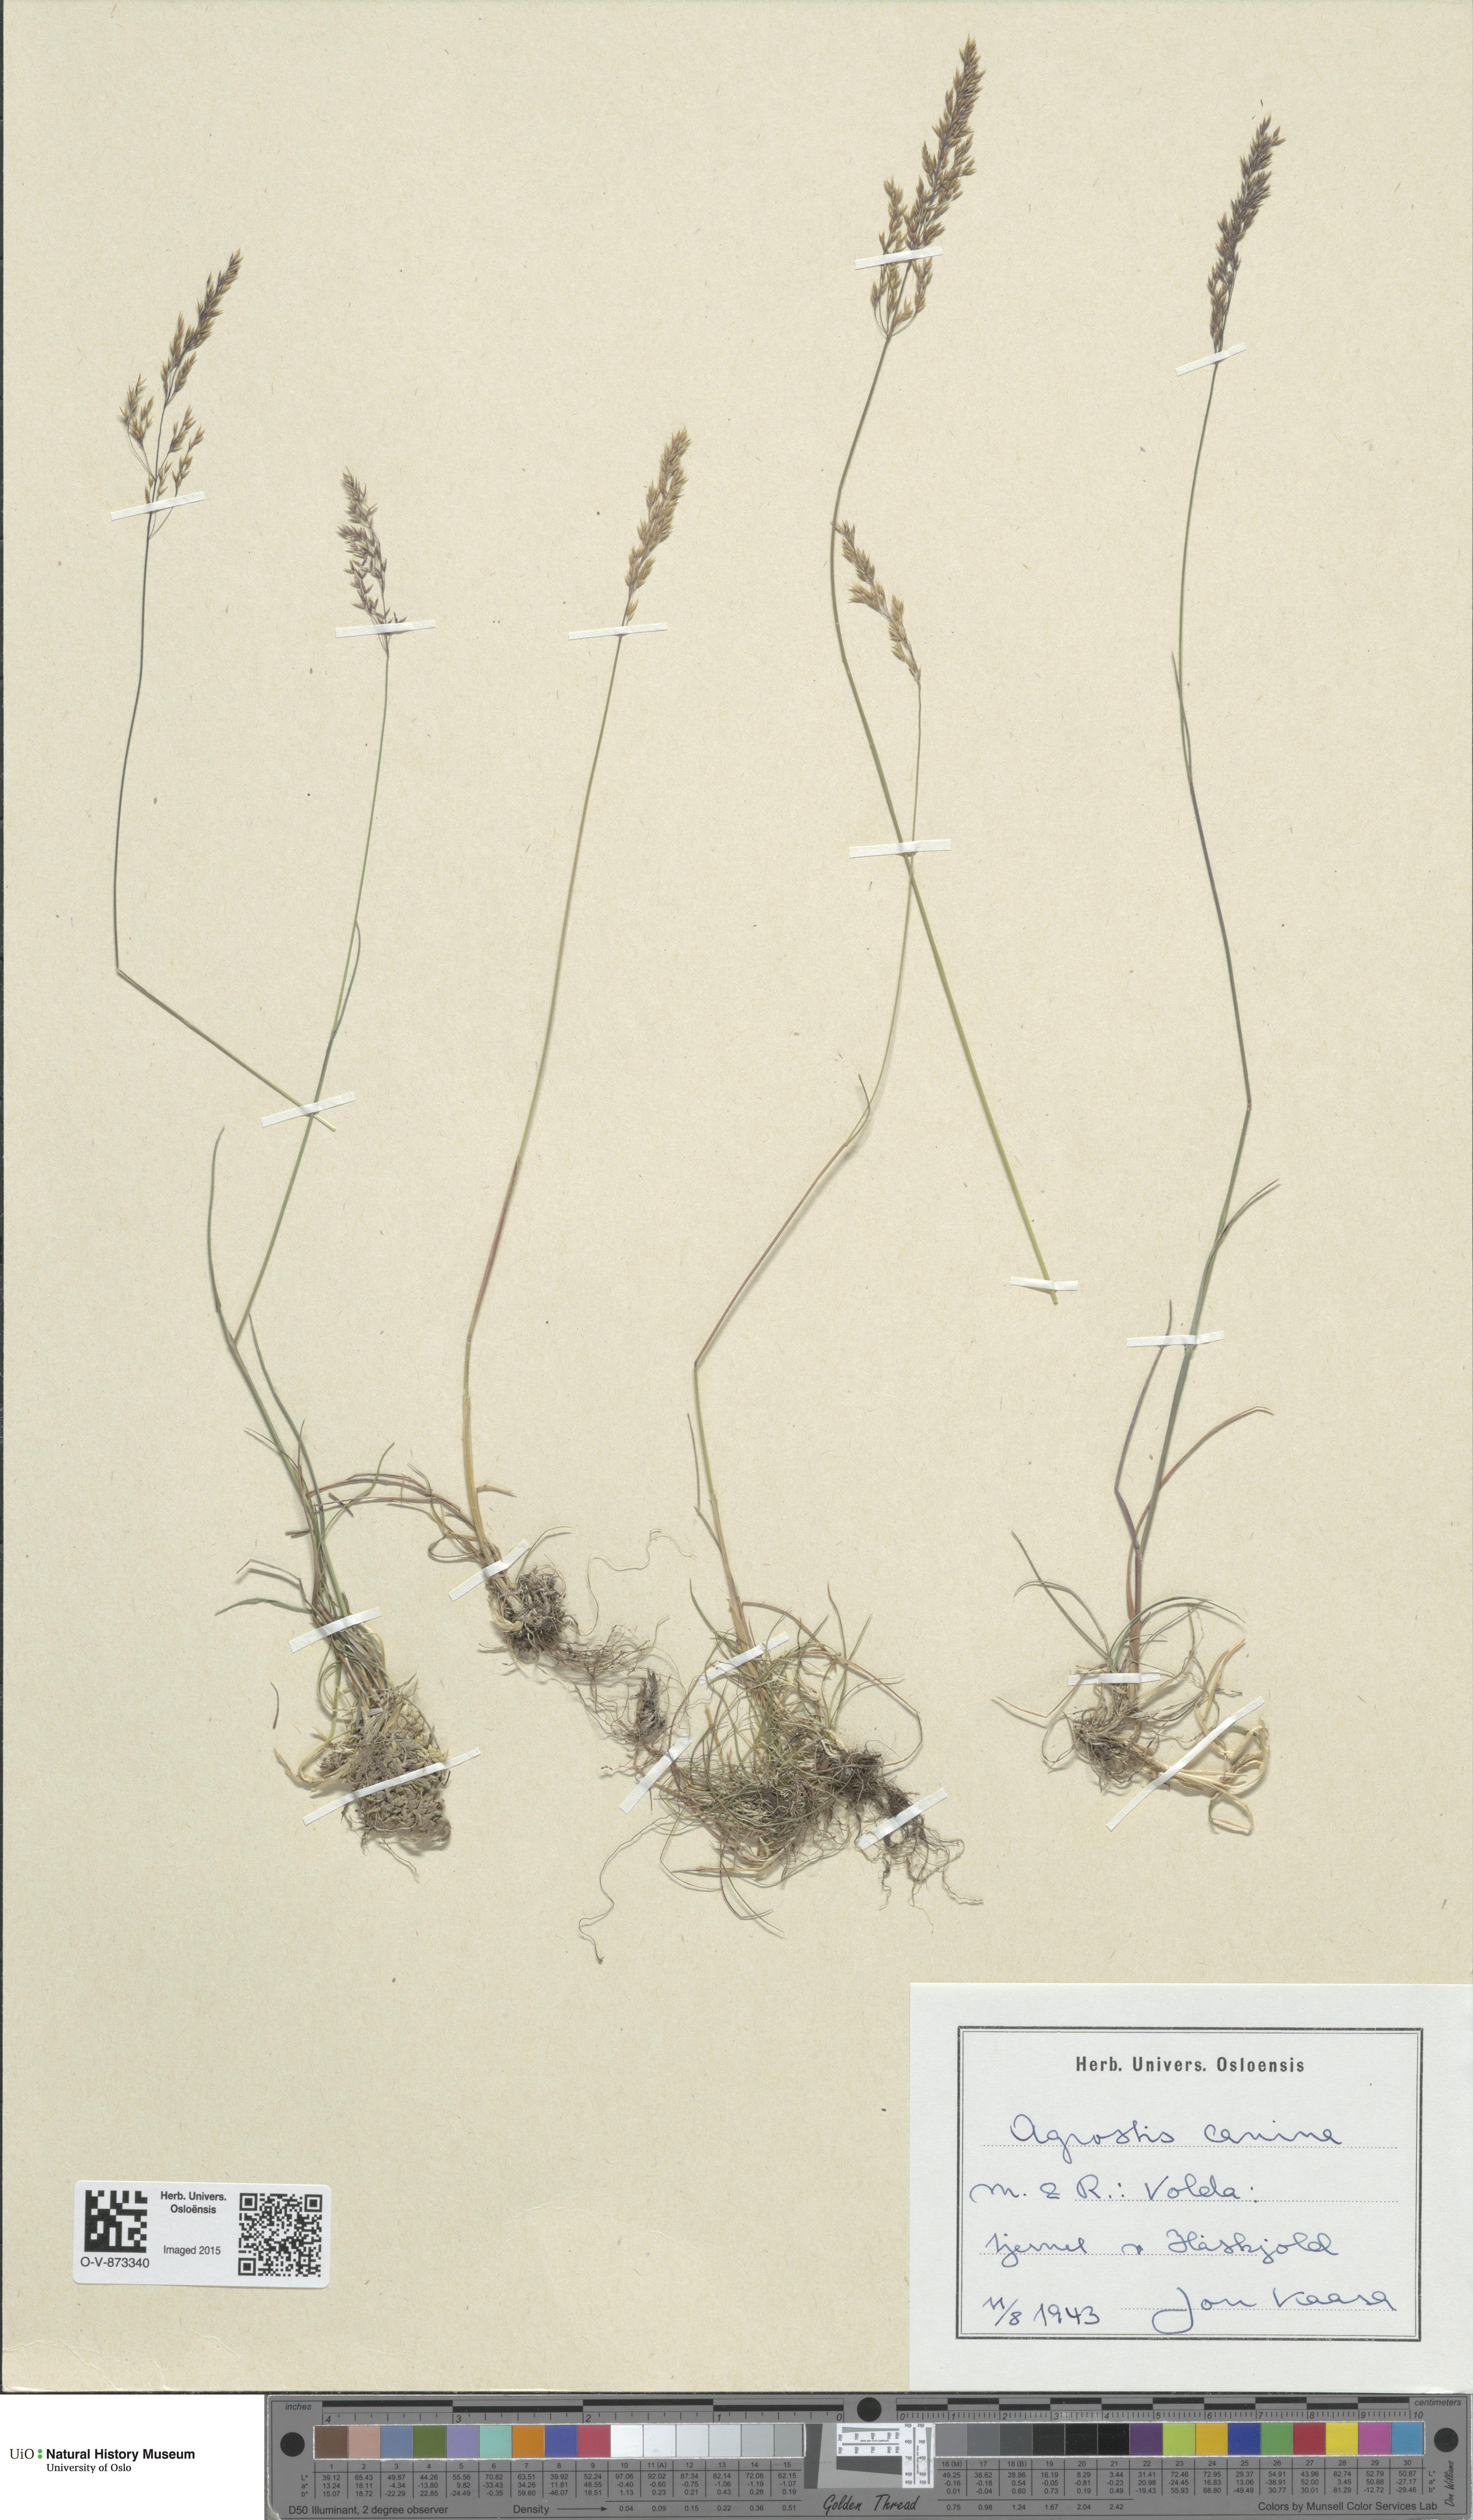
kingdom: Plantae
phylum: Tracheophyta
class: Liliopsida
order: Poales
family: Poaceae
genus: Agrostis
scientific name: Agrostis canina
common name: Velvet bent
